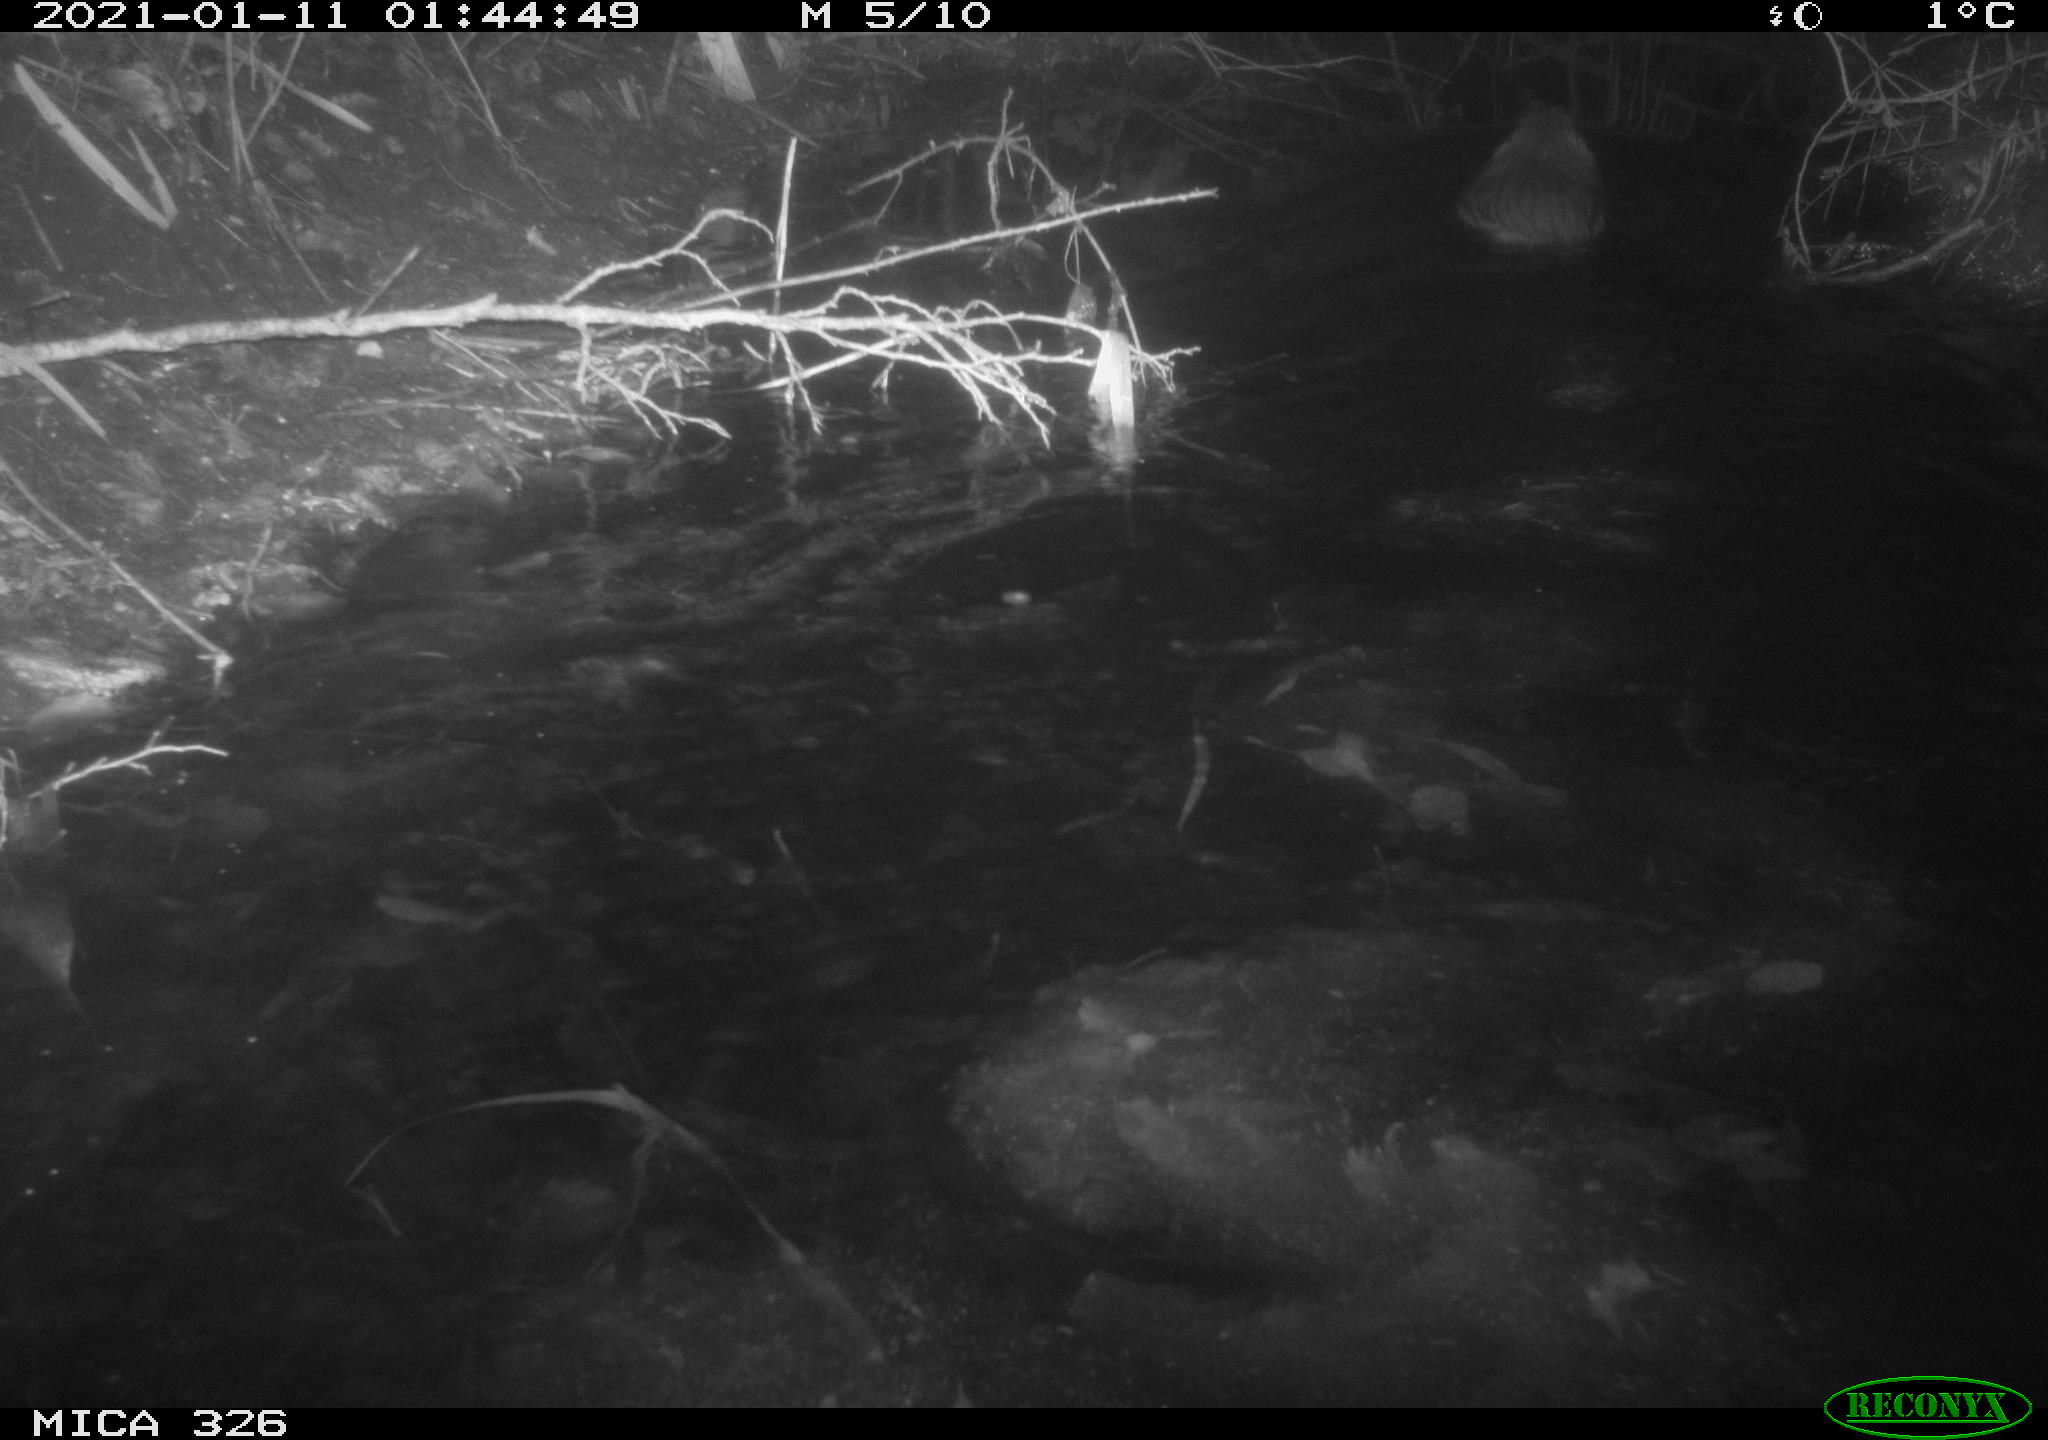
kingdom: Animalia
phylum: Chordata
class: Mammalia
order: Rodentia
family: Myocastoridae
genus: Myocastor
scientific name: Myocastor coypus
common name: Coypu
